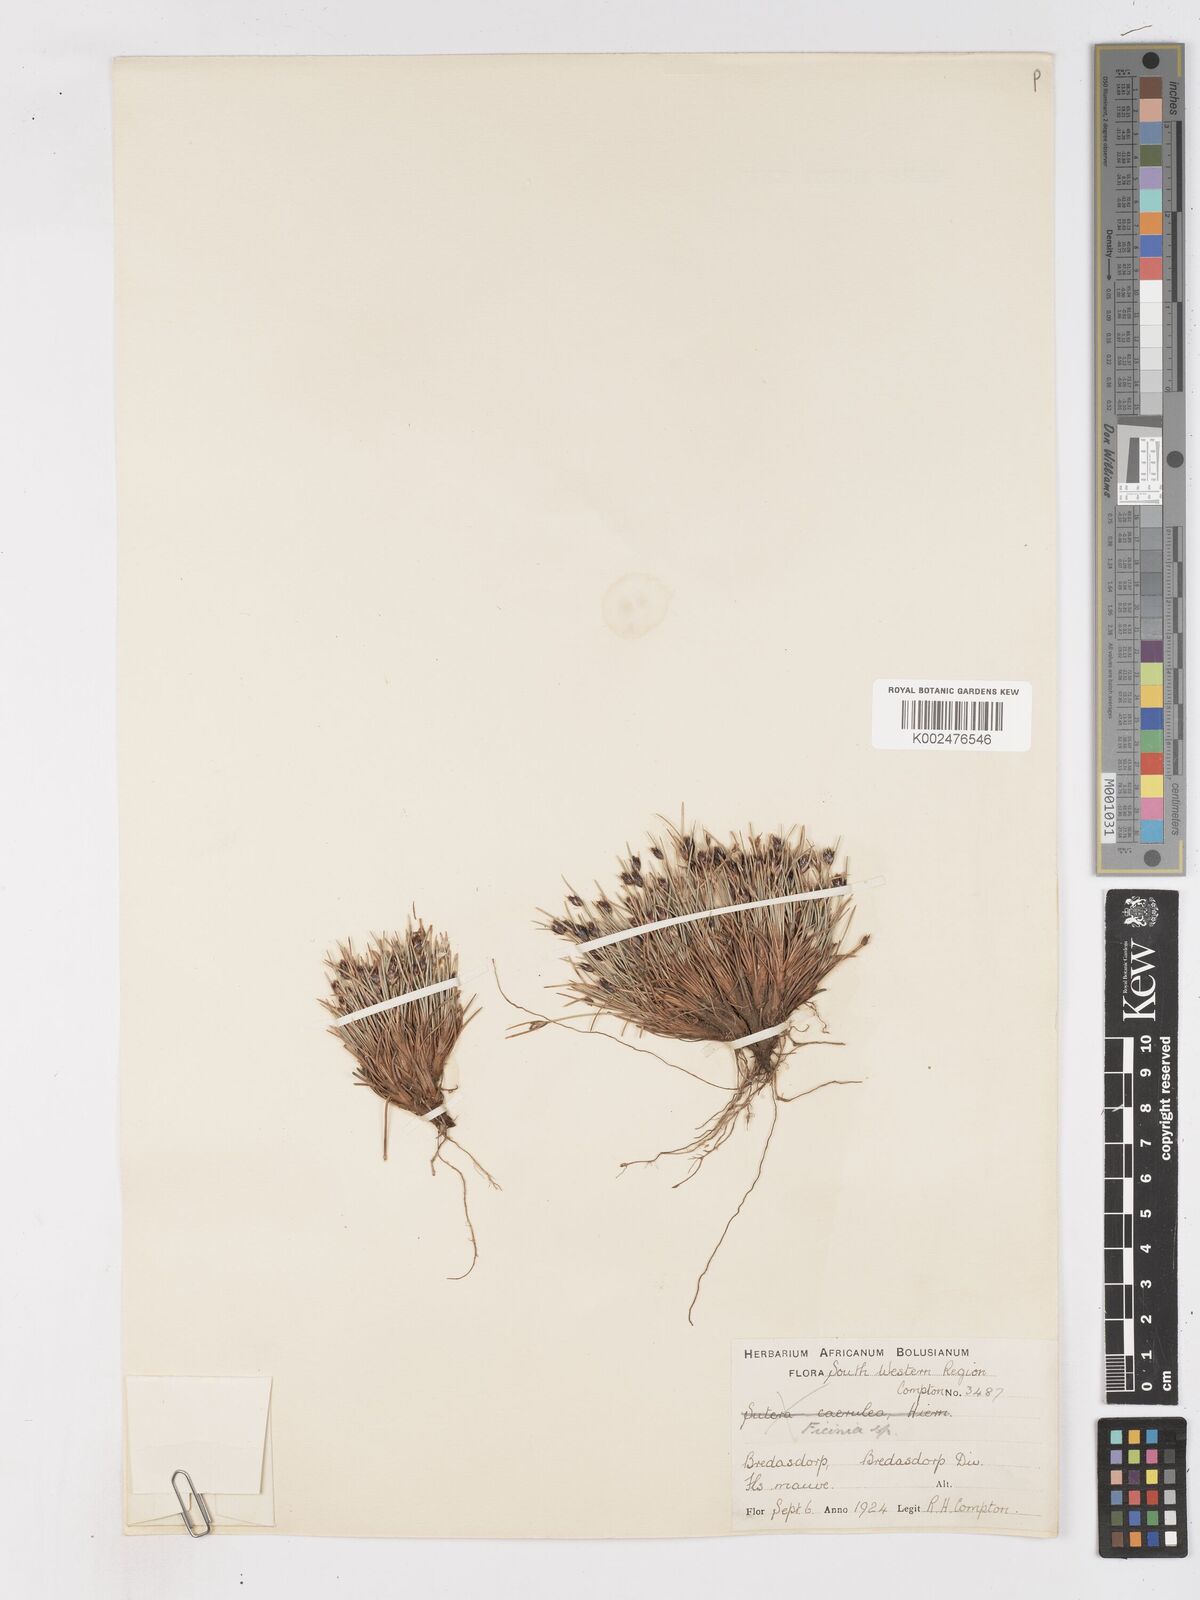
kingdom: Plantae
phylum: Tracheophyta
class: Liliopsida
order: Poales
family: Cyperaceae
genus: Ficinia
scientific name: Ficinia
